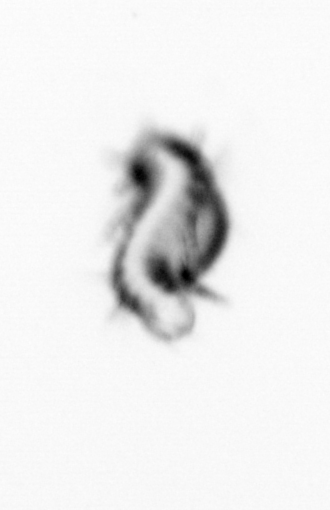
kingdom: Animalia
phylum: Annelida
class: Polychaeta
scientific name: Polychaeta
